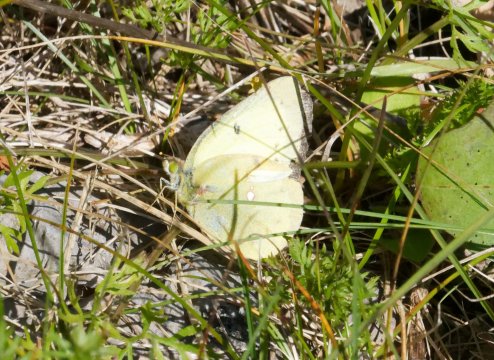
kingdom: Animalia
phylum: Arthropoda
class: Insecta
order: Lepidoptera
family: Pieridae
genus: Colias
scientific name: Colias philodice
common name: Clouded Sulphur
